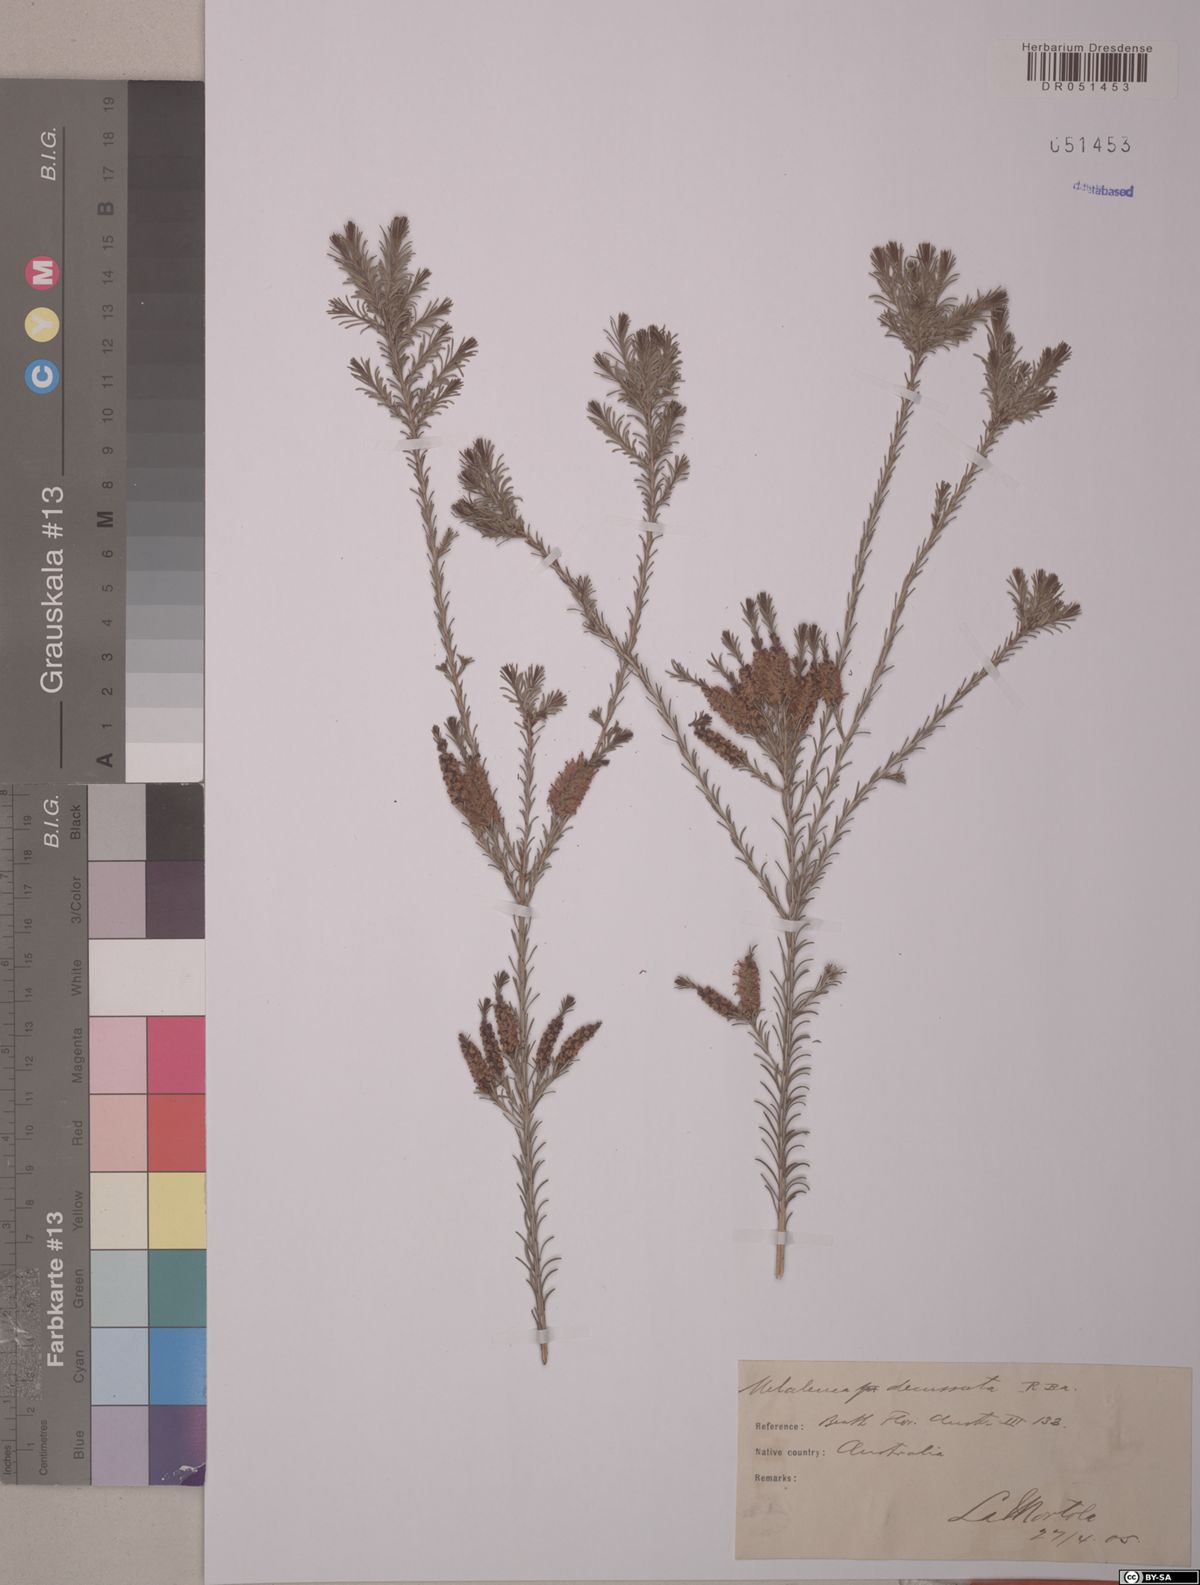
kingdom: Plantae
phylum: Tracheophyta
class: Magnoliopsida
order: Myrtales
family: Myrtaceae
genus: Melaleuca
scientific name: Melaleuca decussata
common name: Cross-leaf honey myrtle
